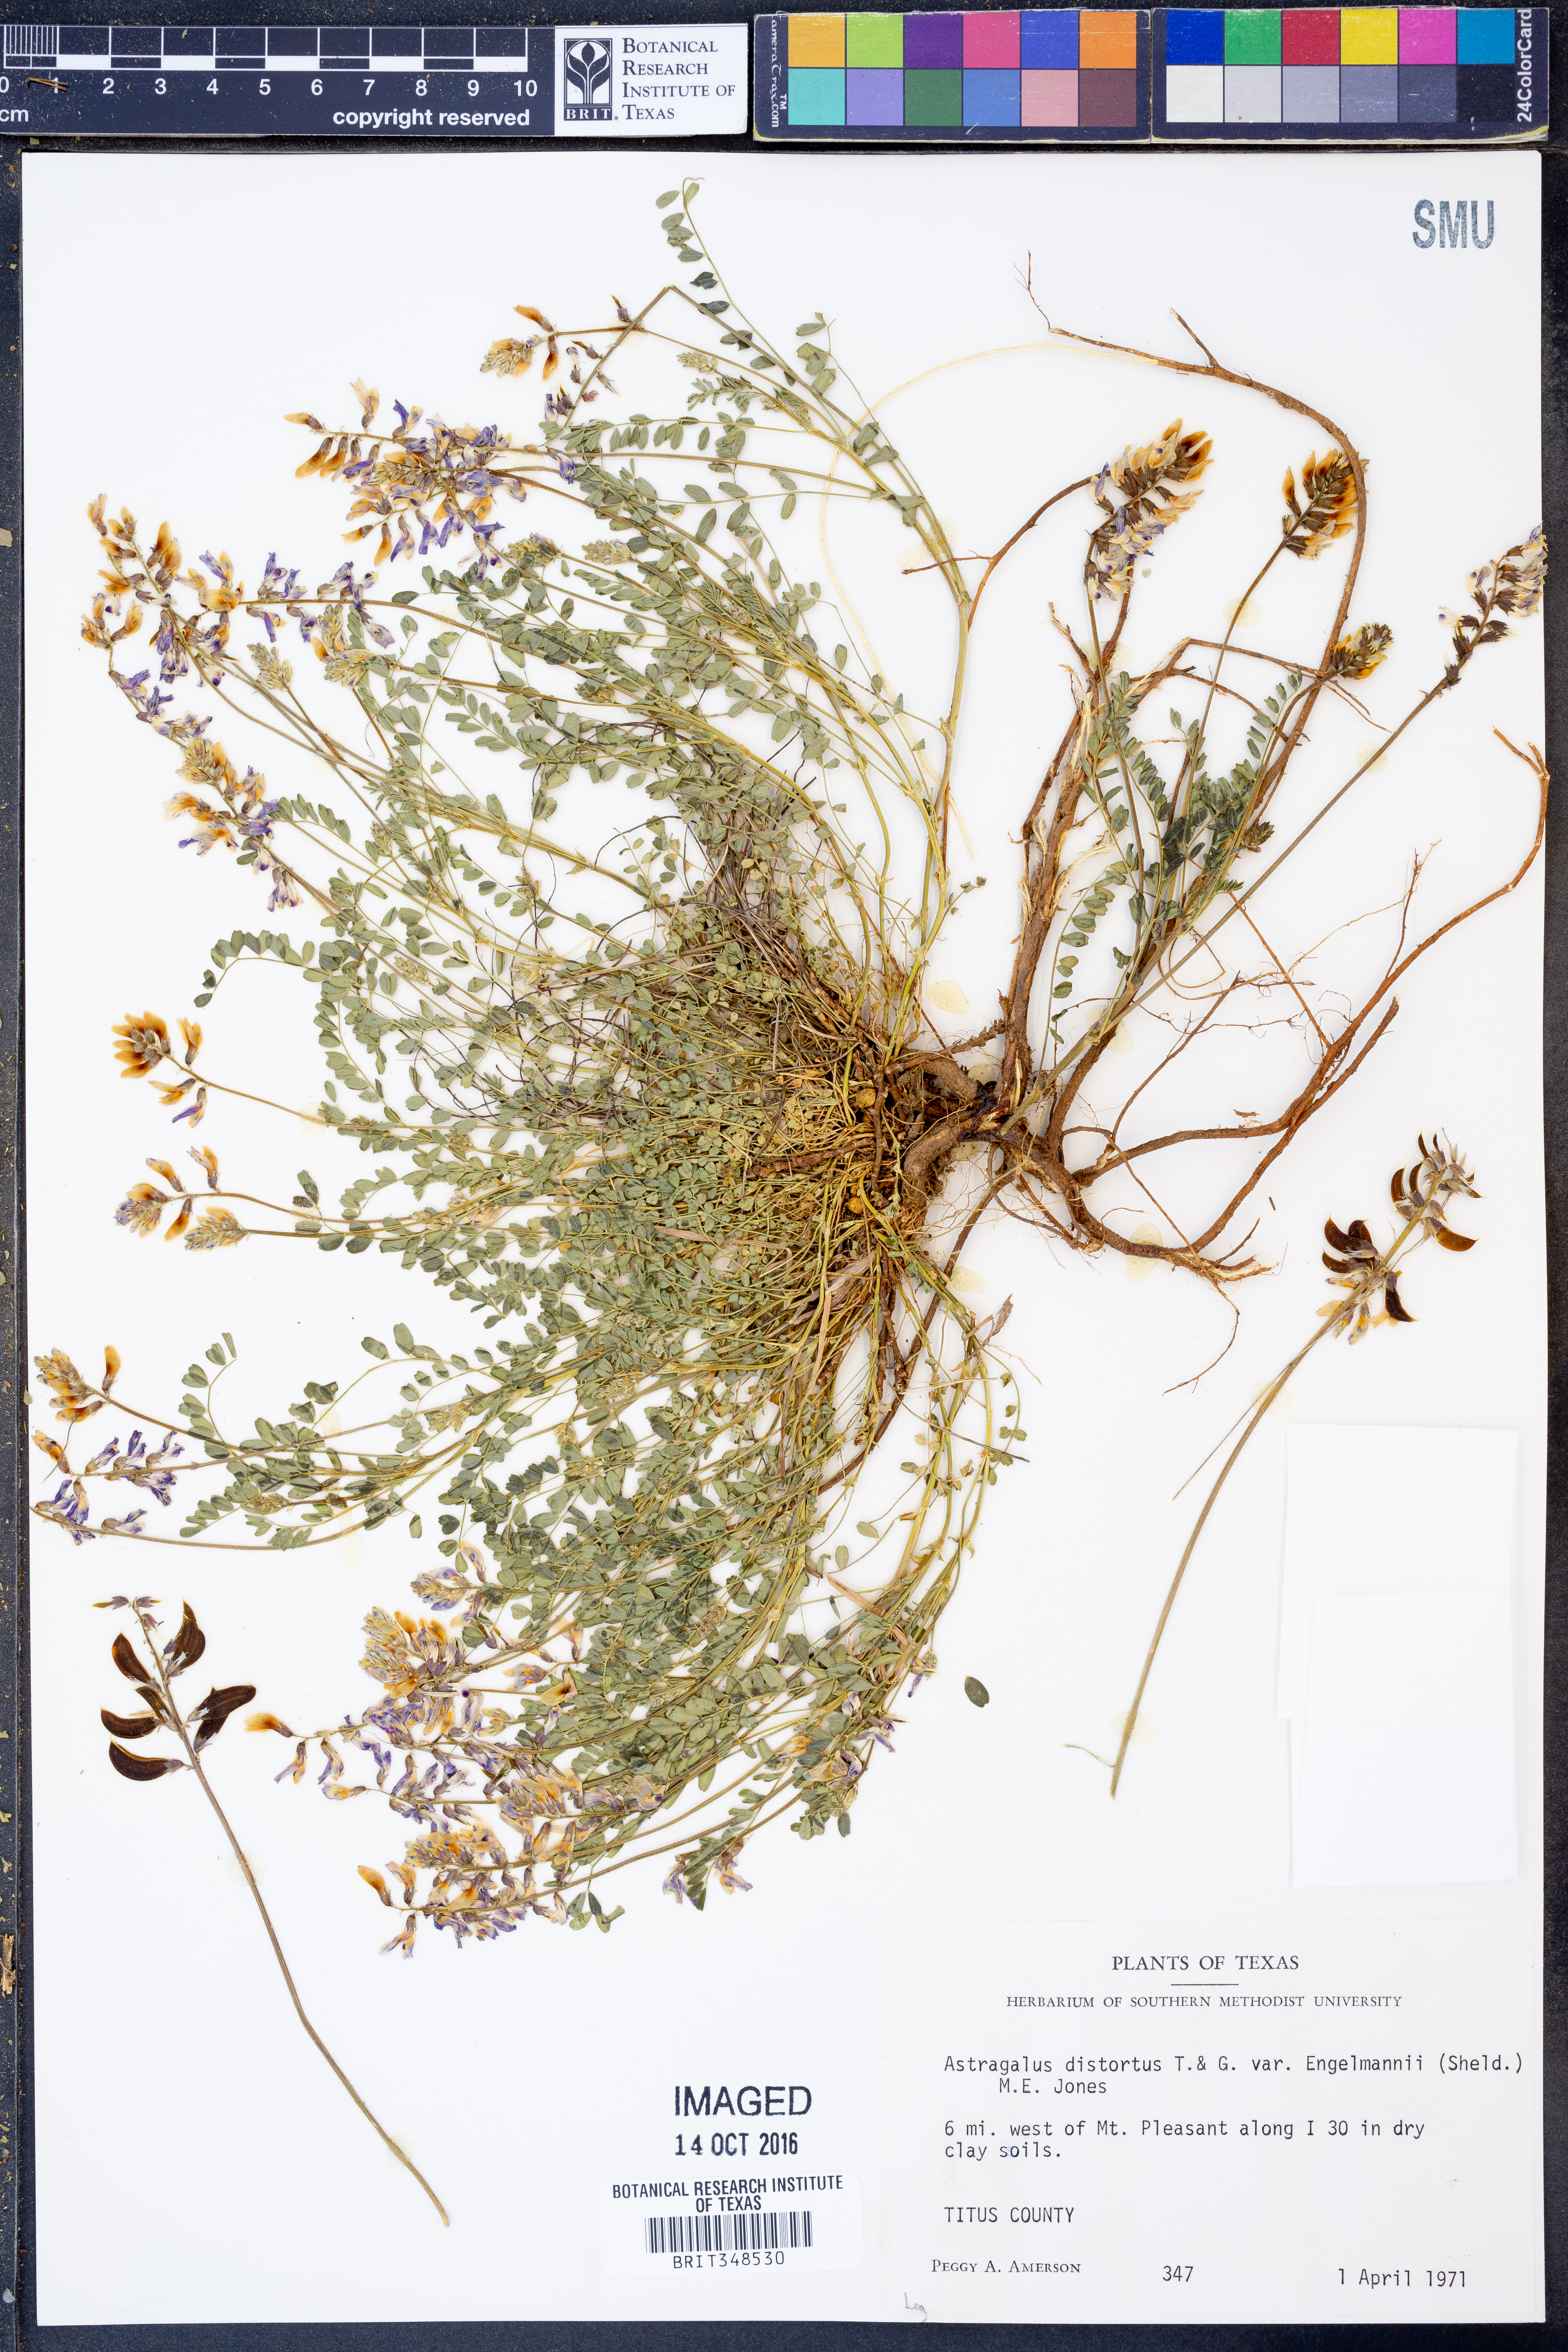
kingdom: Plantae
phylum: Tracheophyta
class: Magnoliopsida
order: Fabales
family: Fabaceae
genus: Astragalus
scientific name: Astragalus distortus
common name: Ozark milk-vetch
